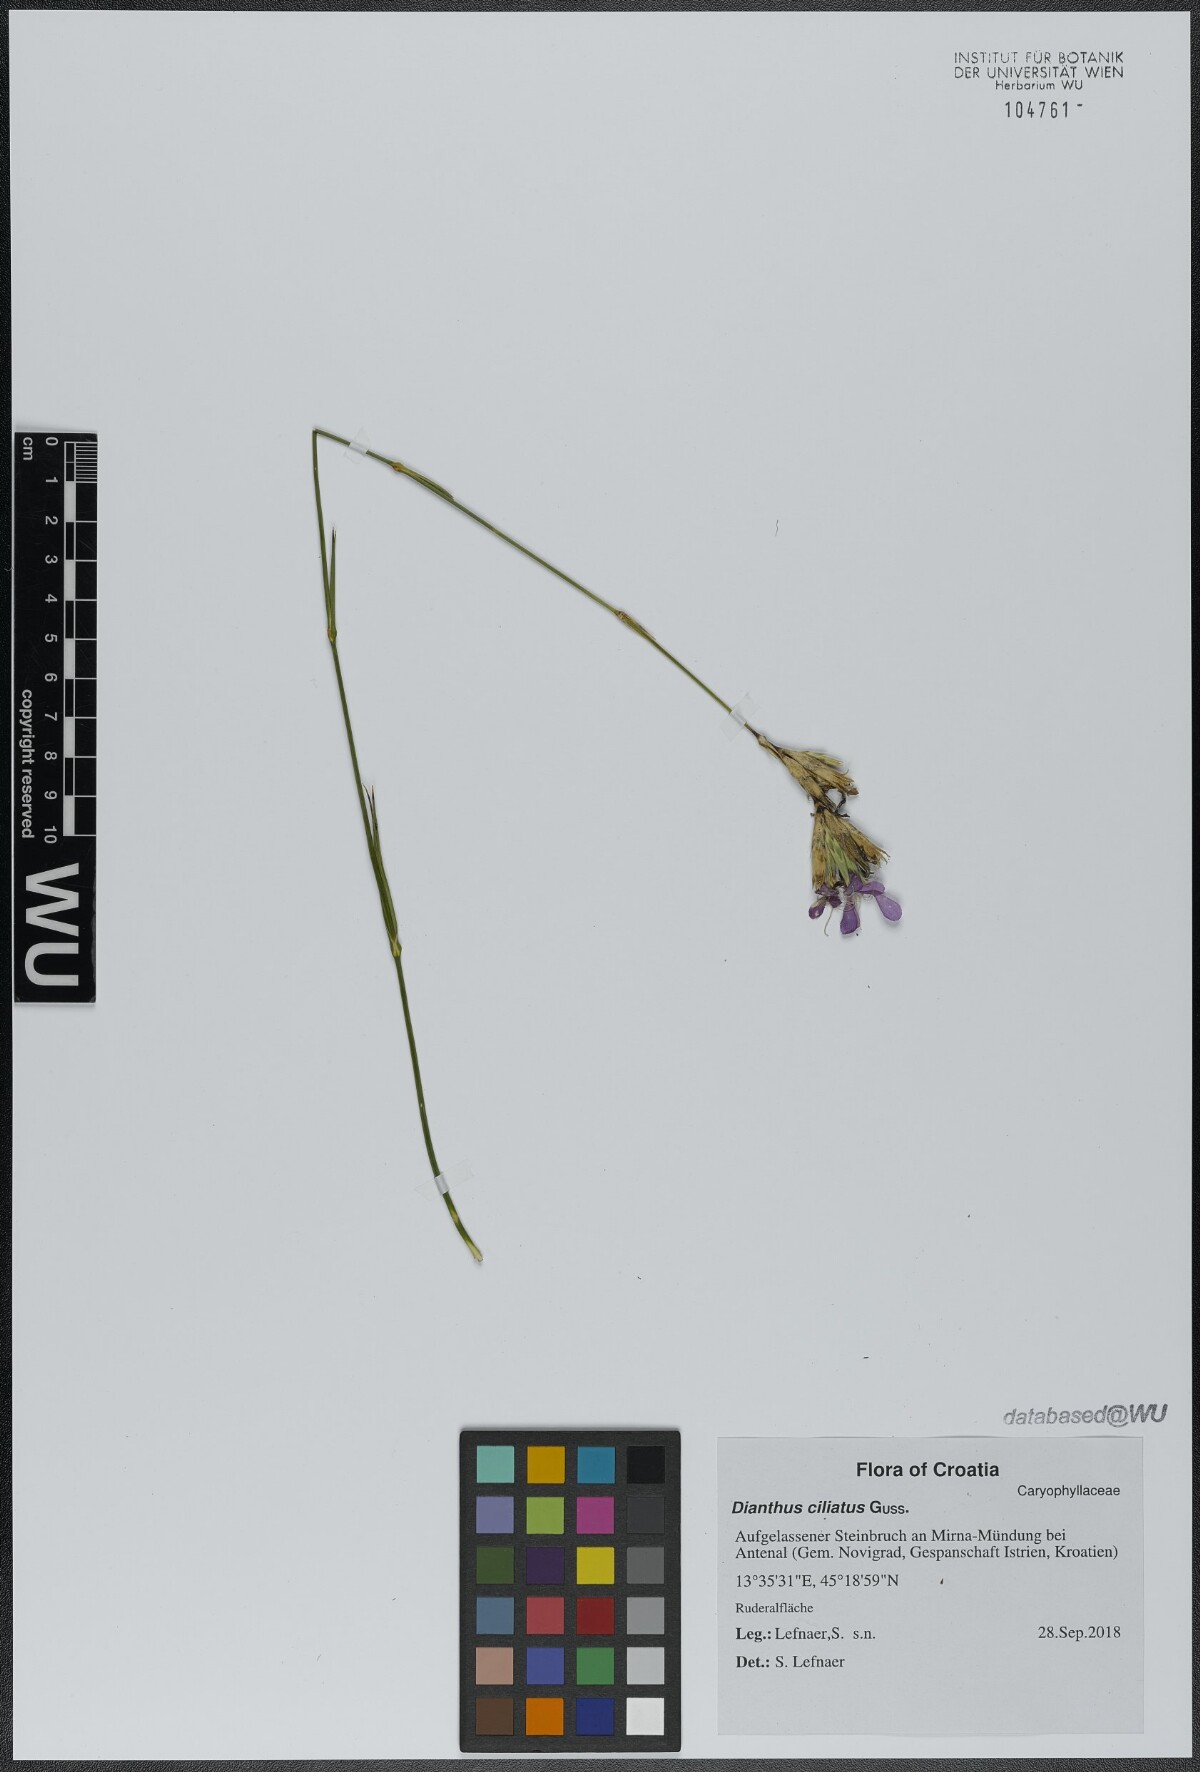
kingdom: Plantae
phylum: Tracheophyta
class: Magnoliopsida
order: Caryophyllales
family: Caryophyllaceae
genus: Dianthus
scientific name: Dianthus ciliatus
